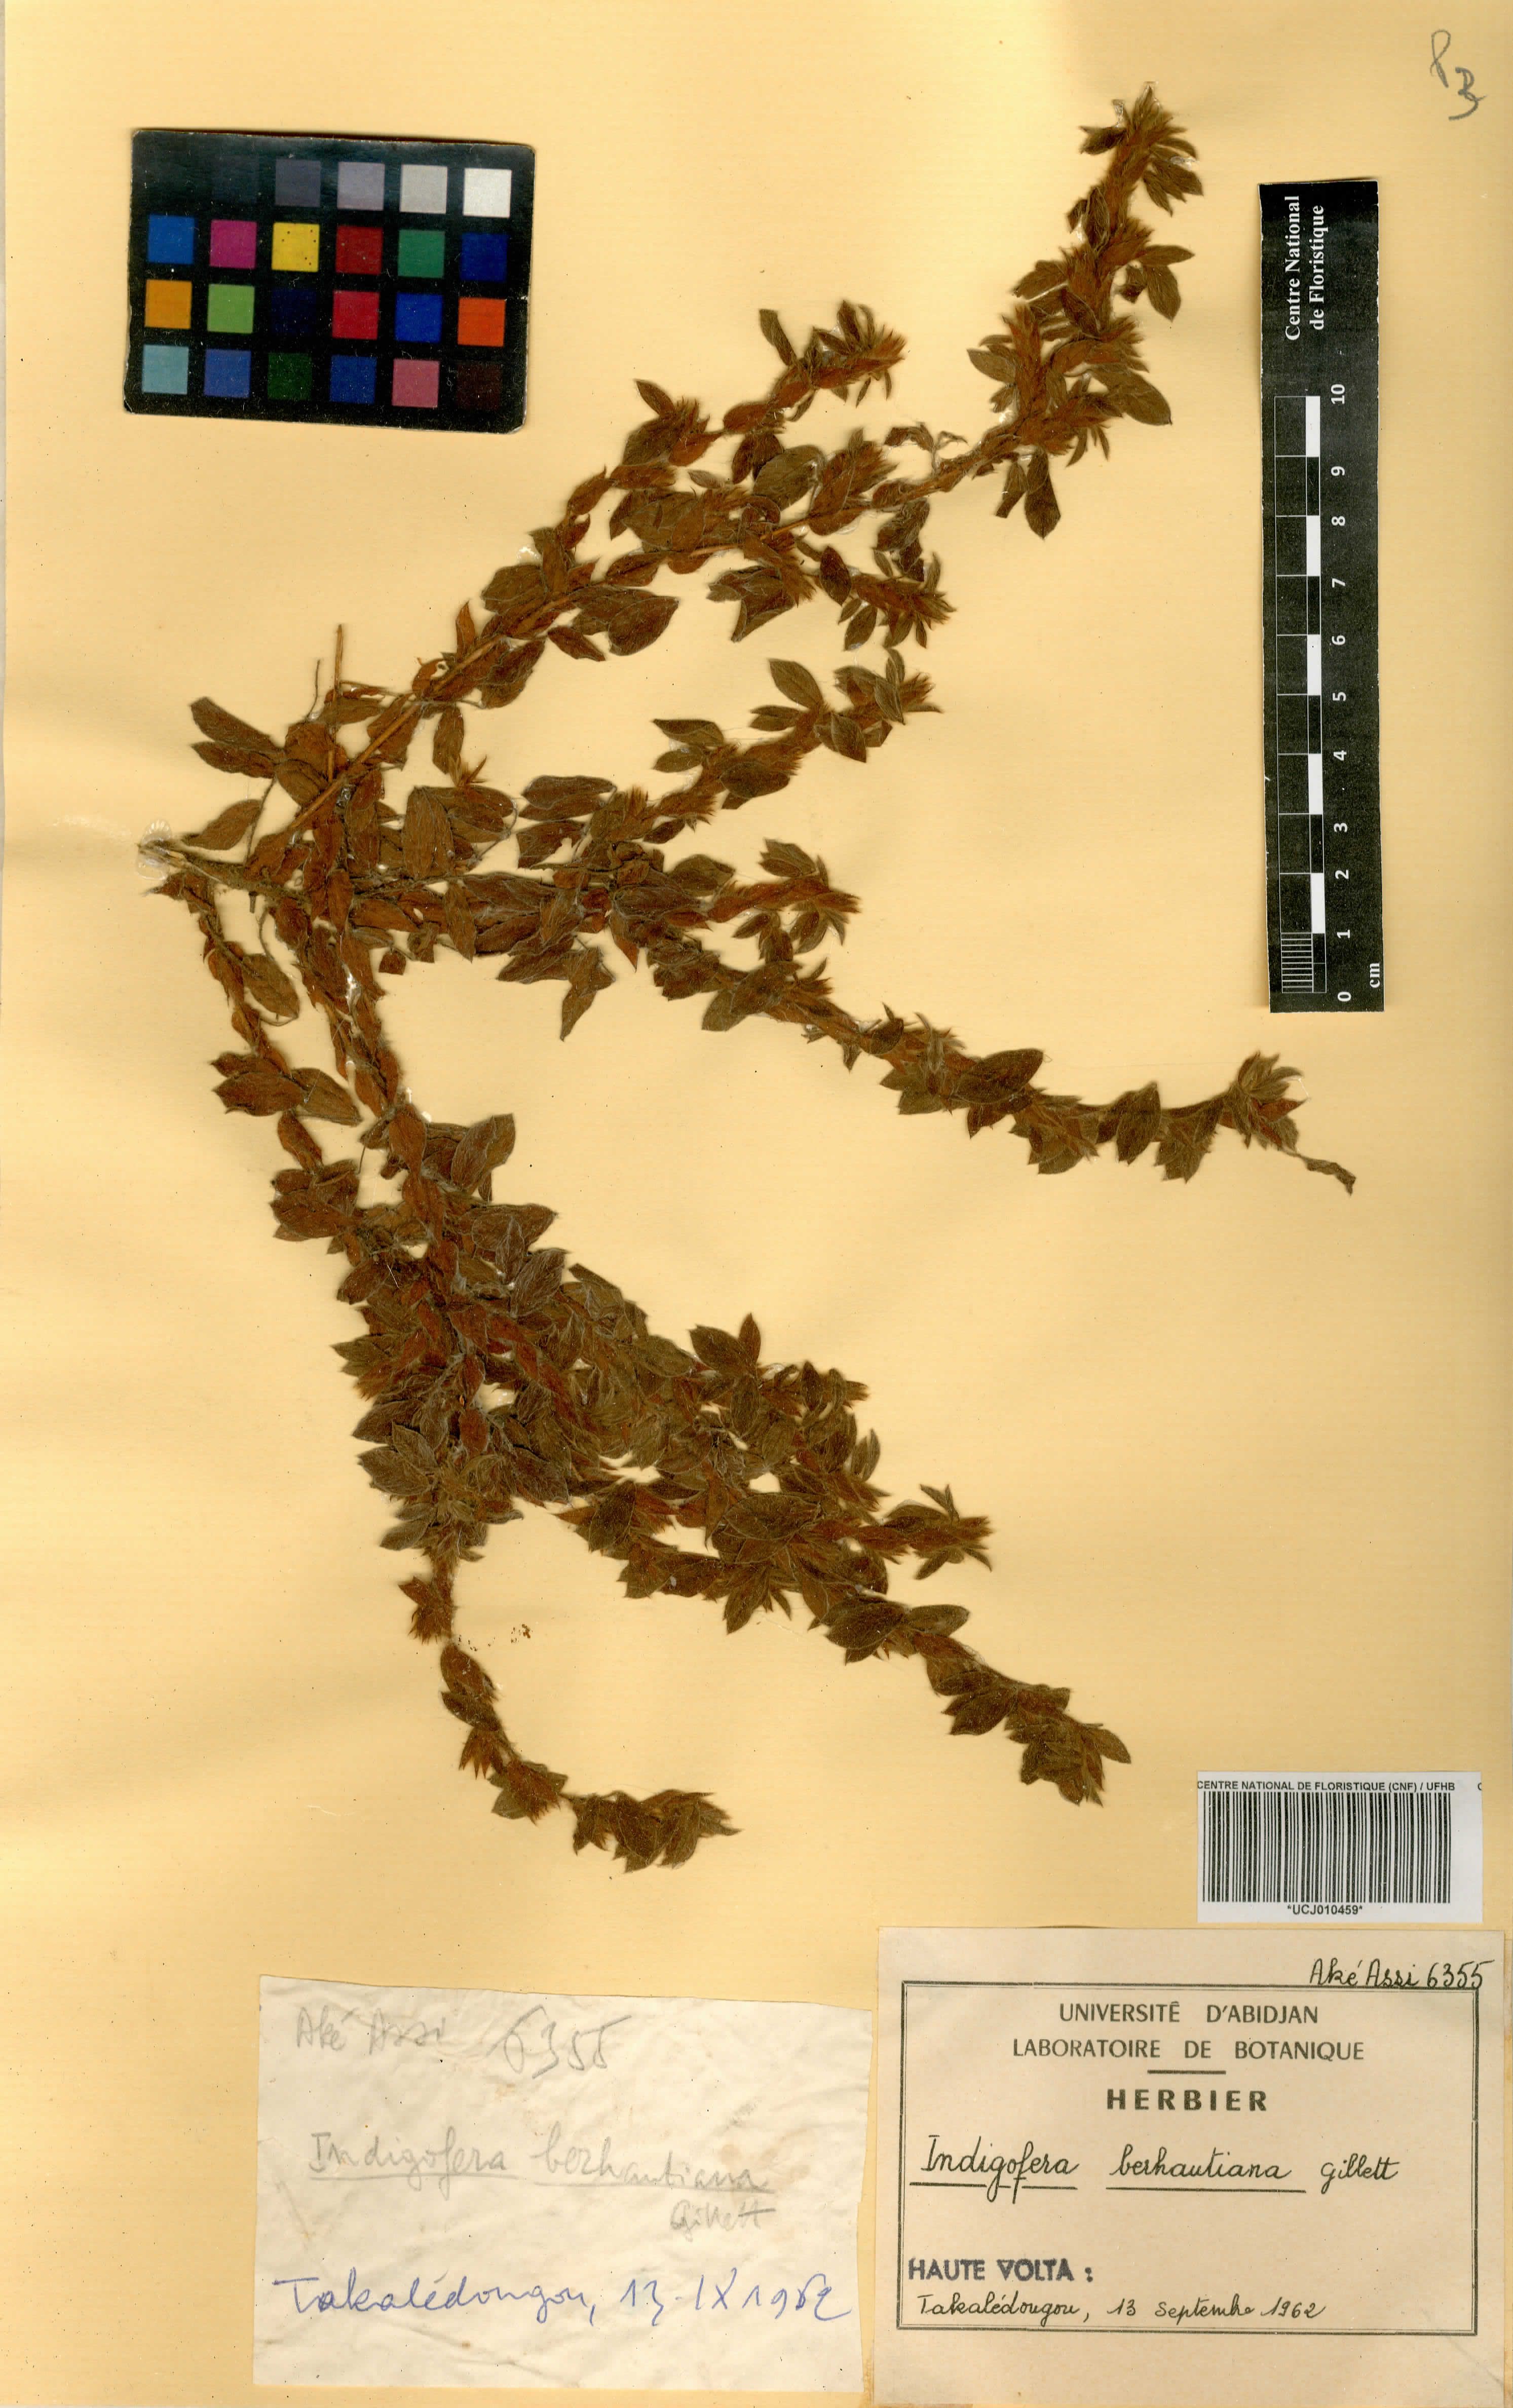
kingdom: Plantae
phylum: Tracheophyta
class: Magnoliopsida
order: Fabales
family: Fabaceae
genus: Indigofera
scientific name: Indigofera berhautiana
